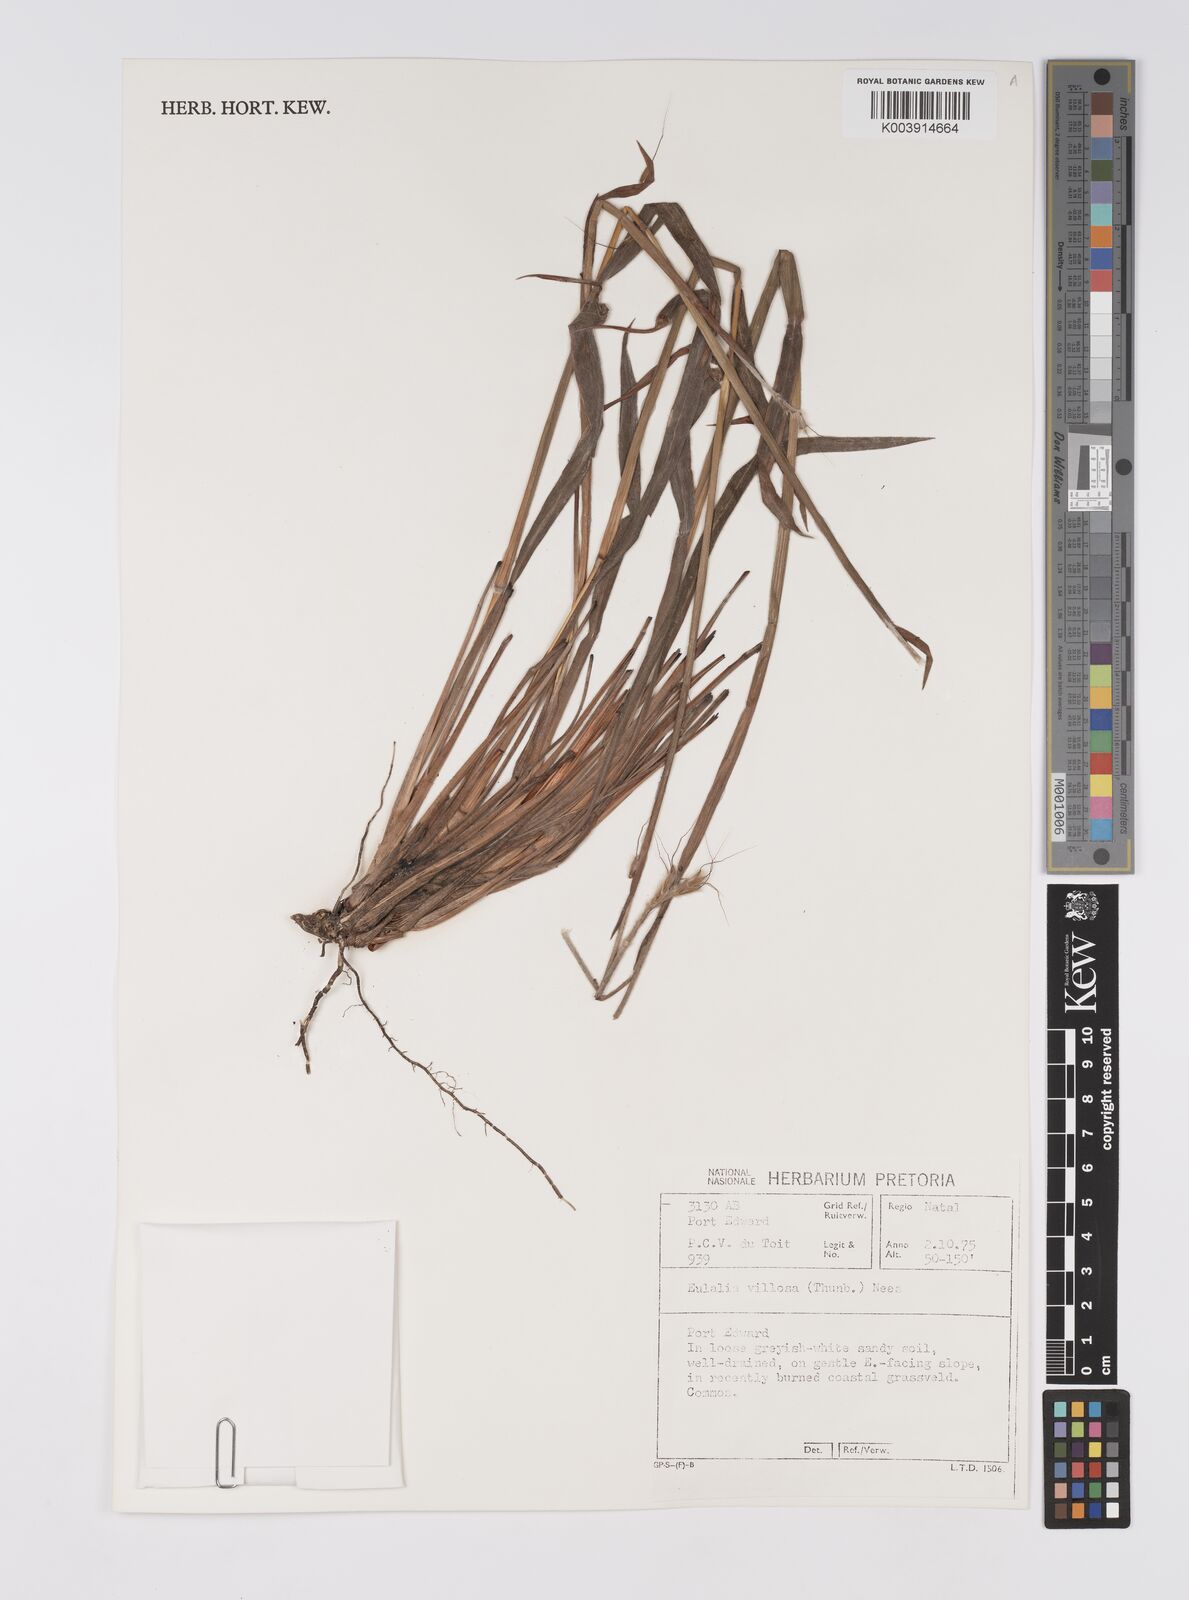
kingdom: Plantae
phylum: Tracheophyta
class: Liliopsida
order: Poales
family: Poaceae
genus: Eulalia
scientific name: Eulalia villosa
